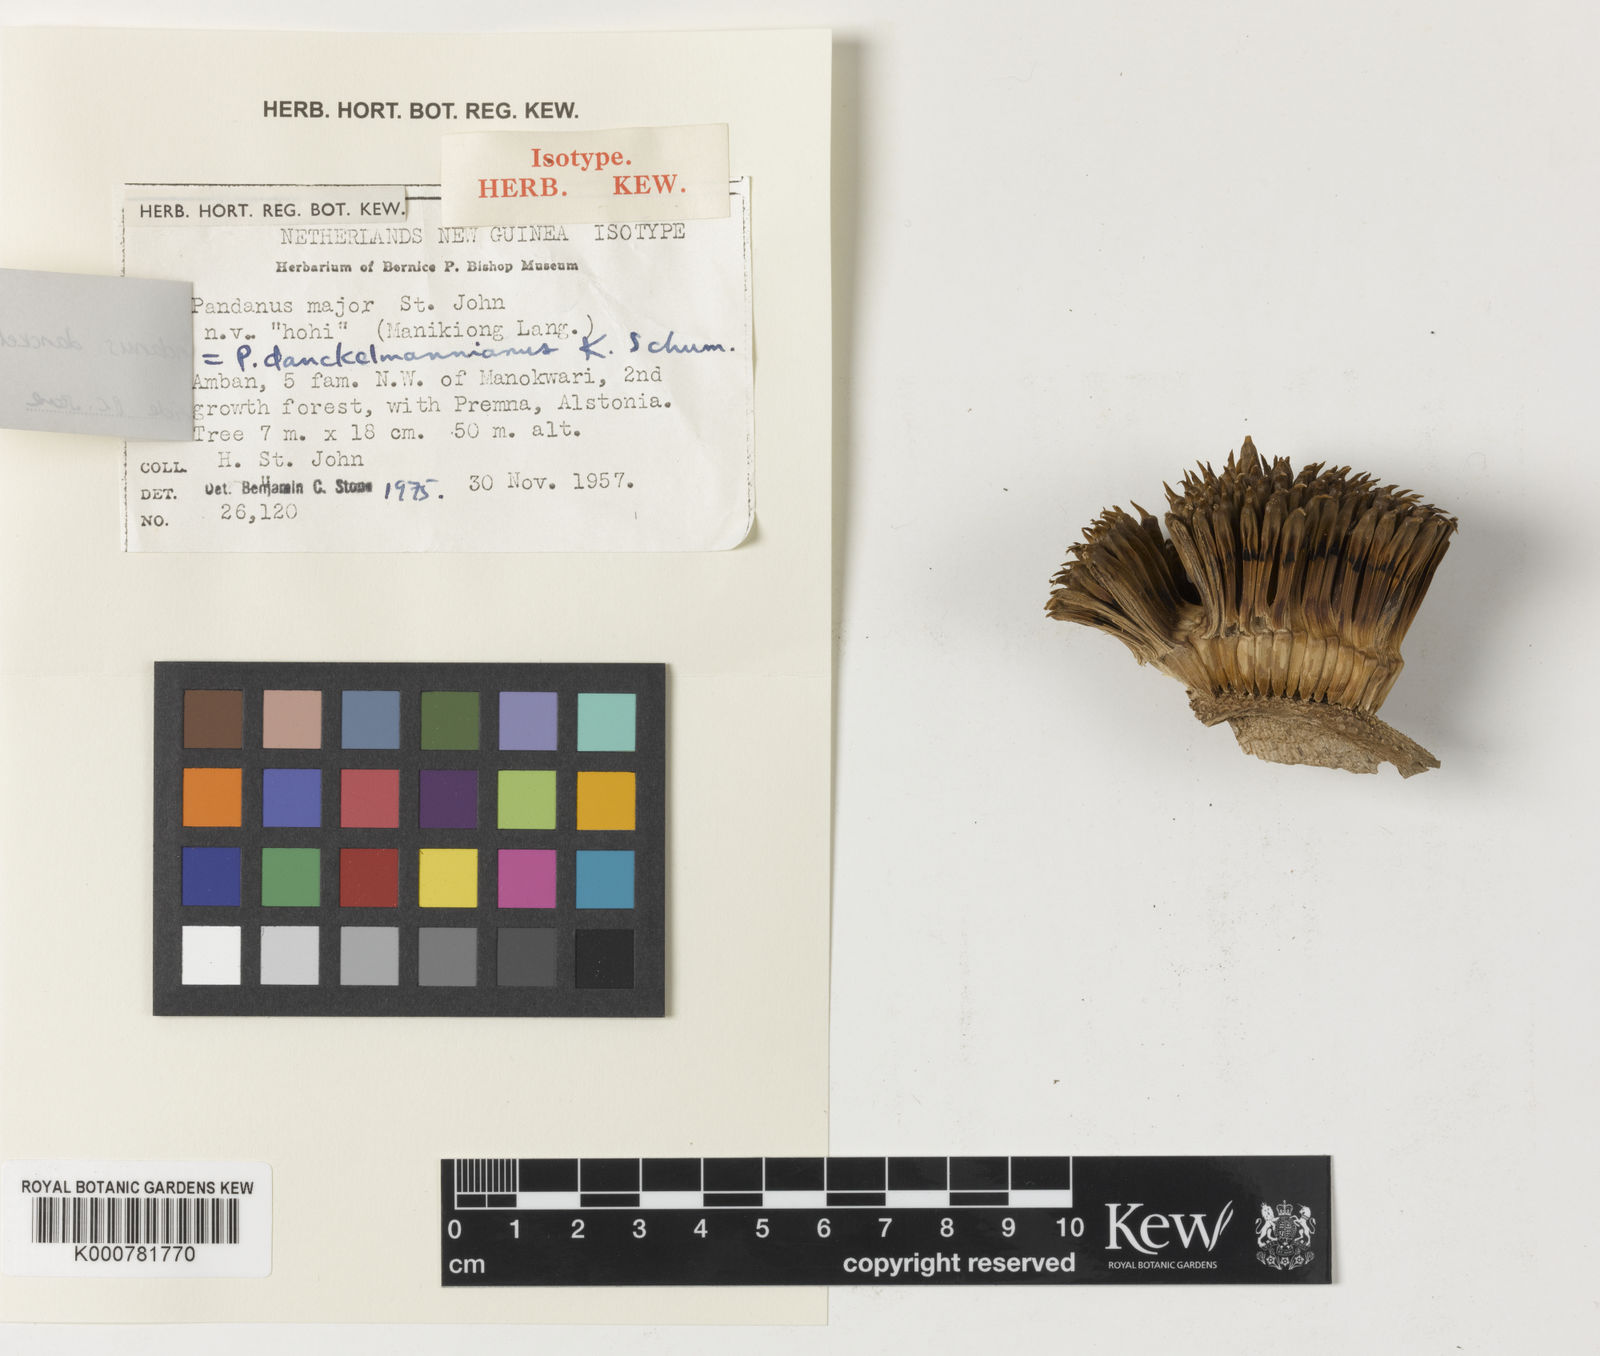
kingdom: Plantae
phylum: Tracheophyta
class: Liliopsida
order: Pandanales
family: Pandanaceae
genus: Benstonea
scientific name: Benstonea stenocarpa
